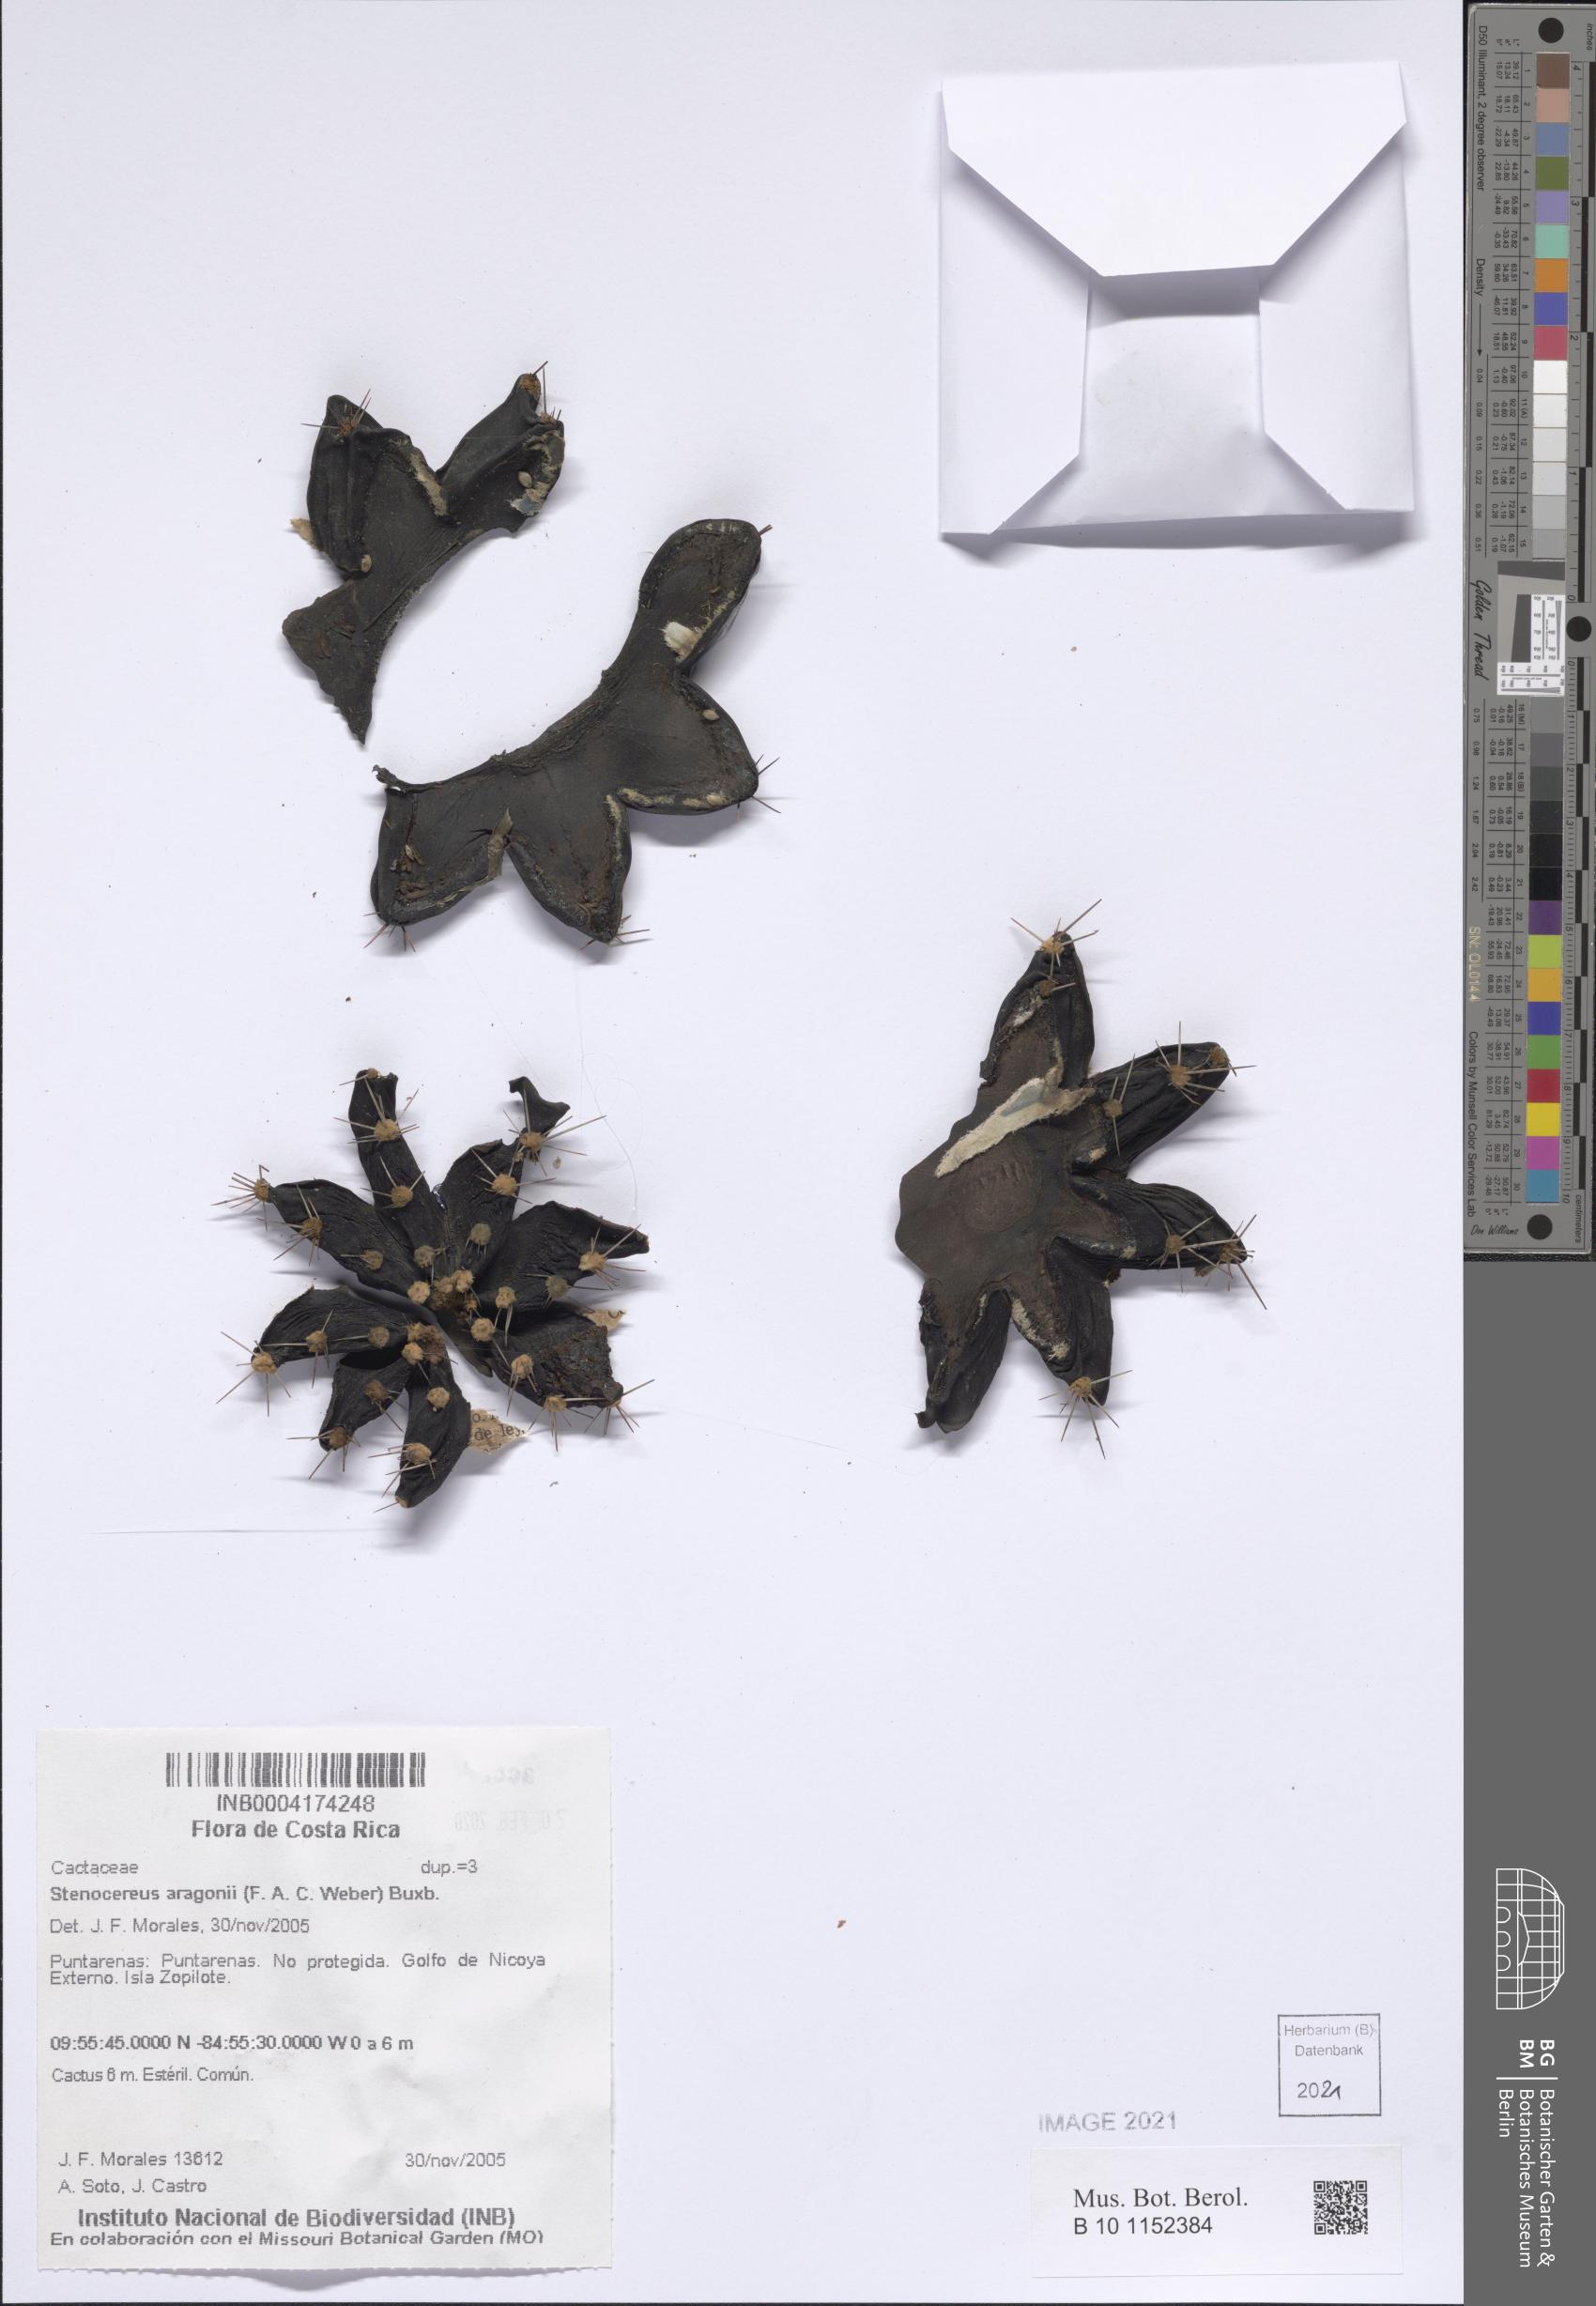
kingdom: Plantae
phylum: Tracheophyta
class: Magnoliopsida
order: Caryophyllales
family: Cactaceae
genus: Stenocereus
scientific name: Stenocereus aragonii
